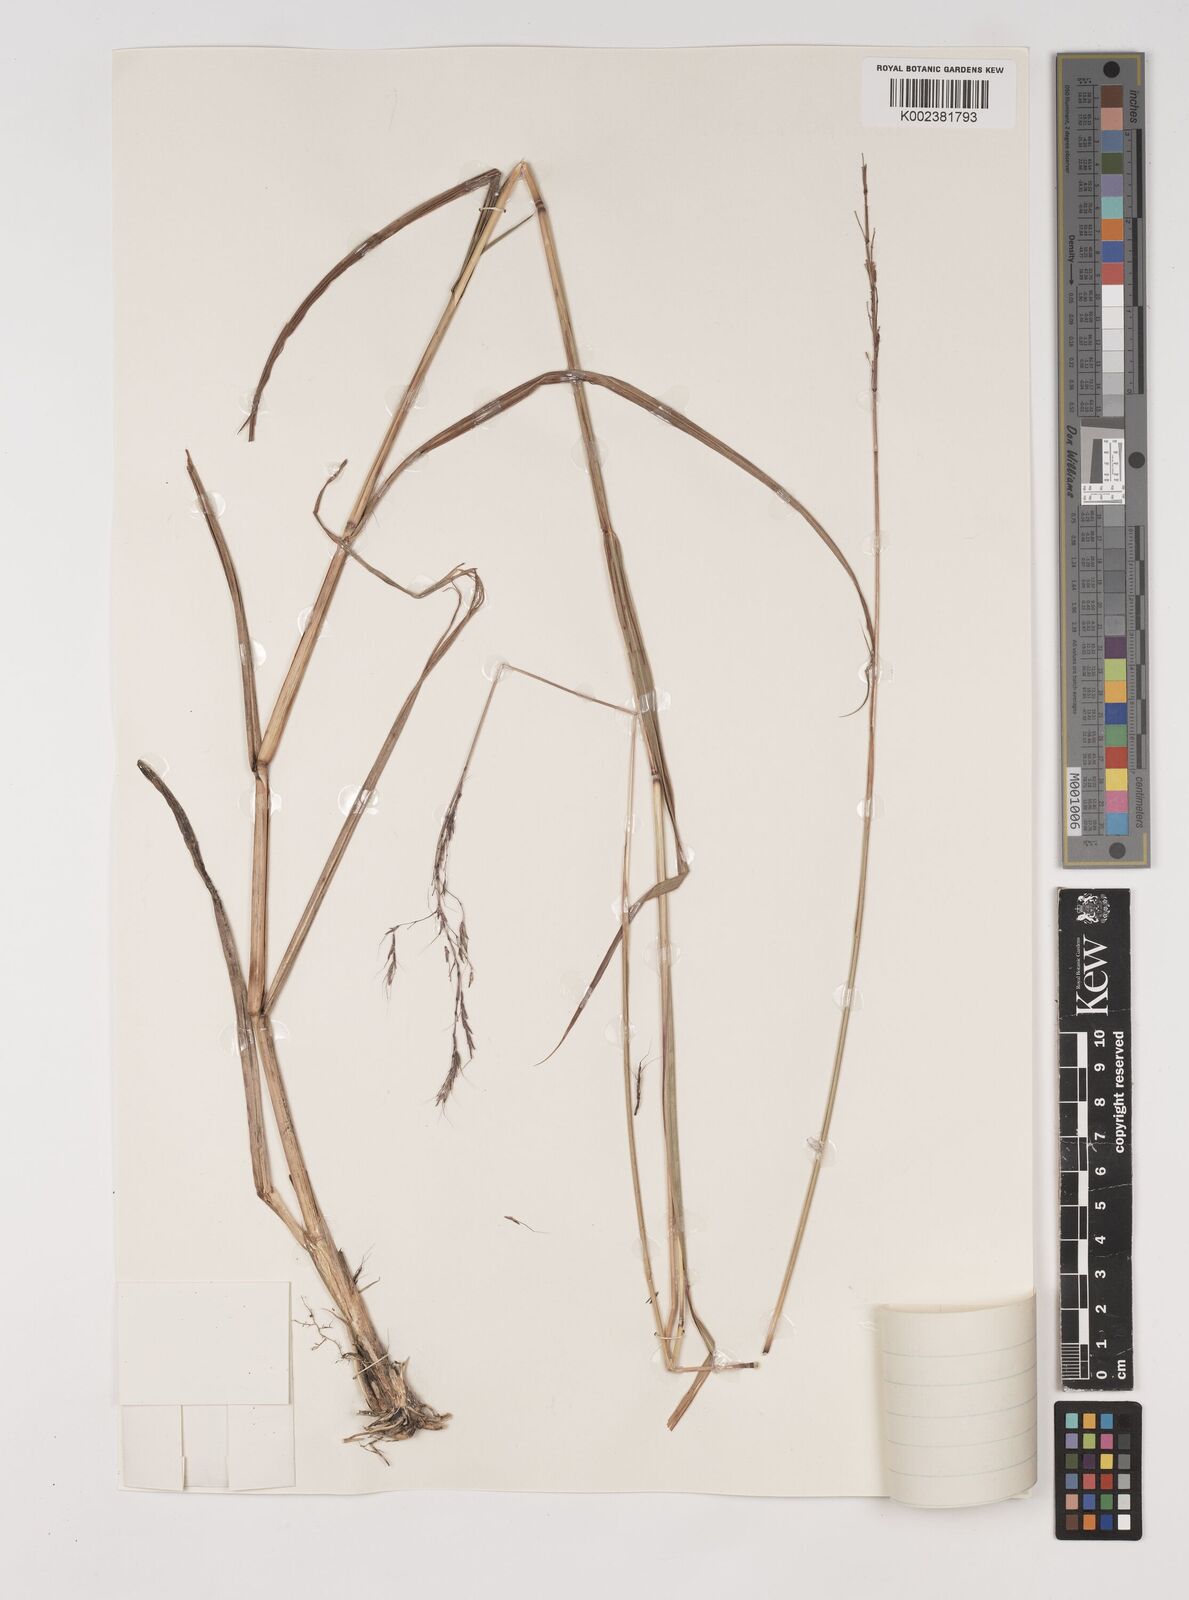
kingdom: Plantae
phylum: Tracheophyta
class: Liliopsida
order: Poales
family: Poaceae
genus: Bothriochloa
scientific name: Bothriochloa bladhii
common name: Caucasian bluestem
